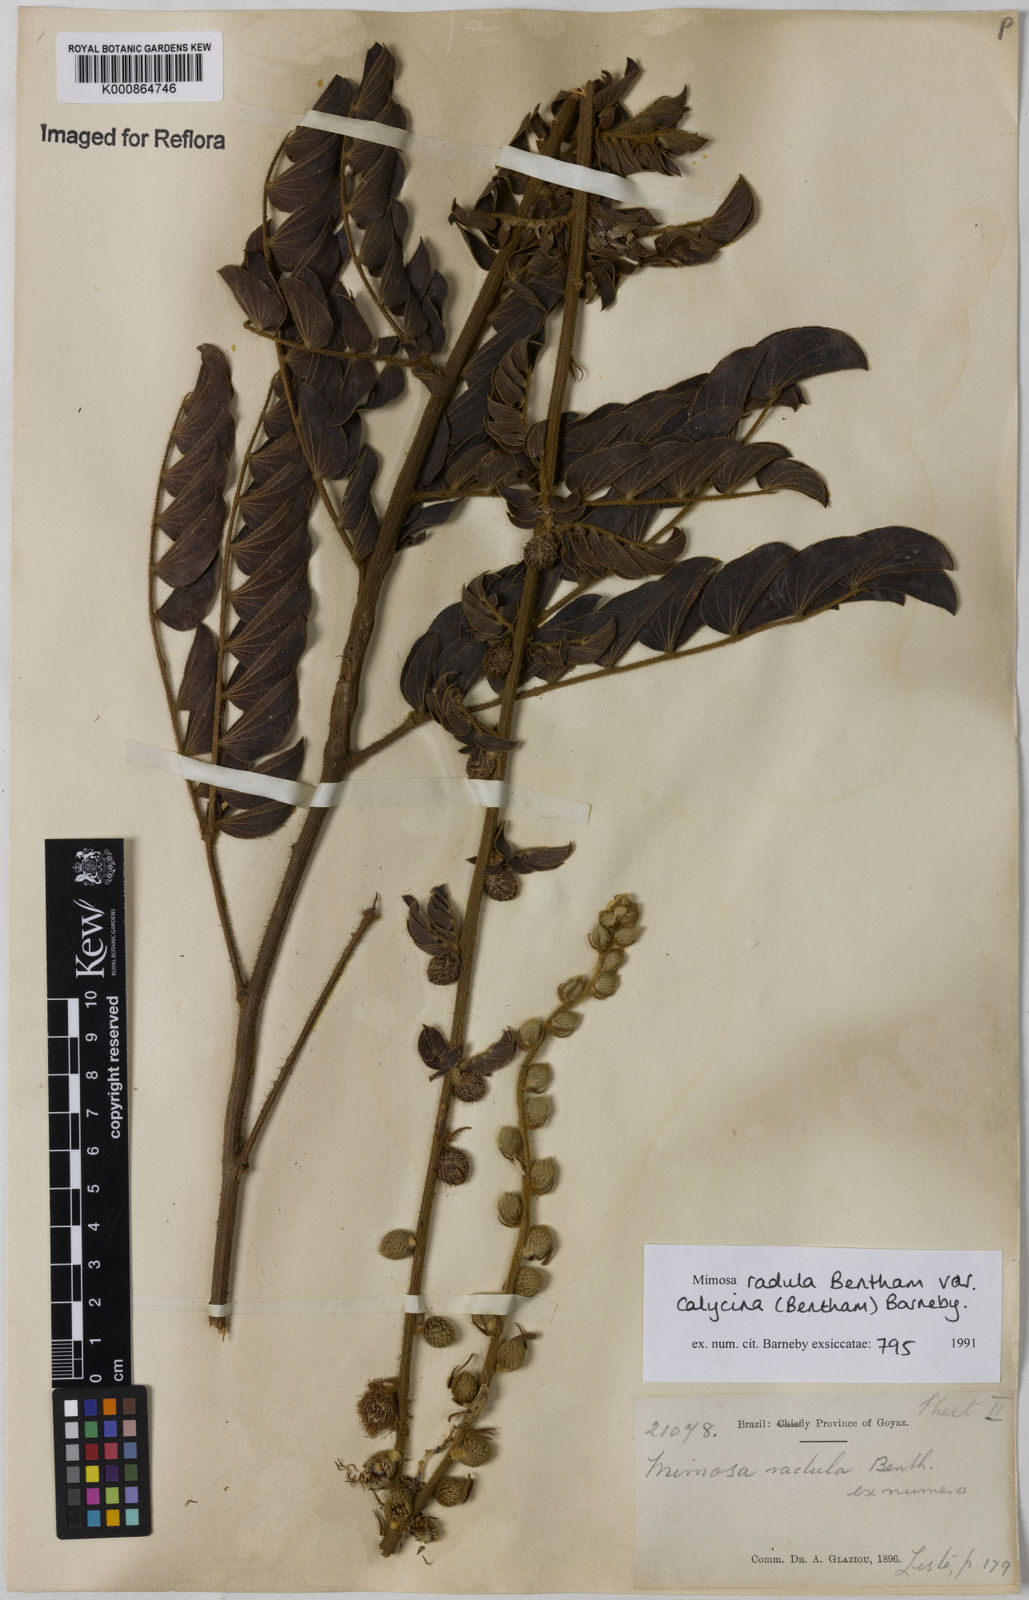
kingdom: Plantae
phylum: Tracheophyta
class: Magnoliopsida
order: Fabales
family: Fabaceae
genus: Mimosa
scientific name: Mimosa radula
